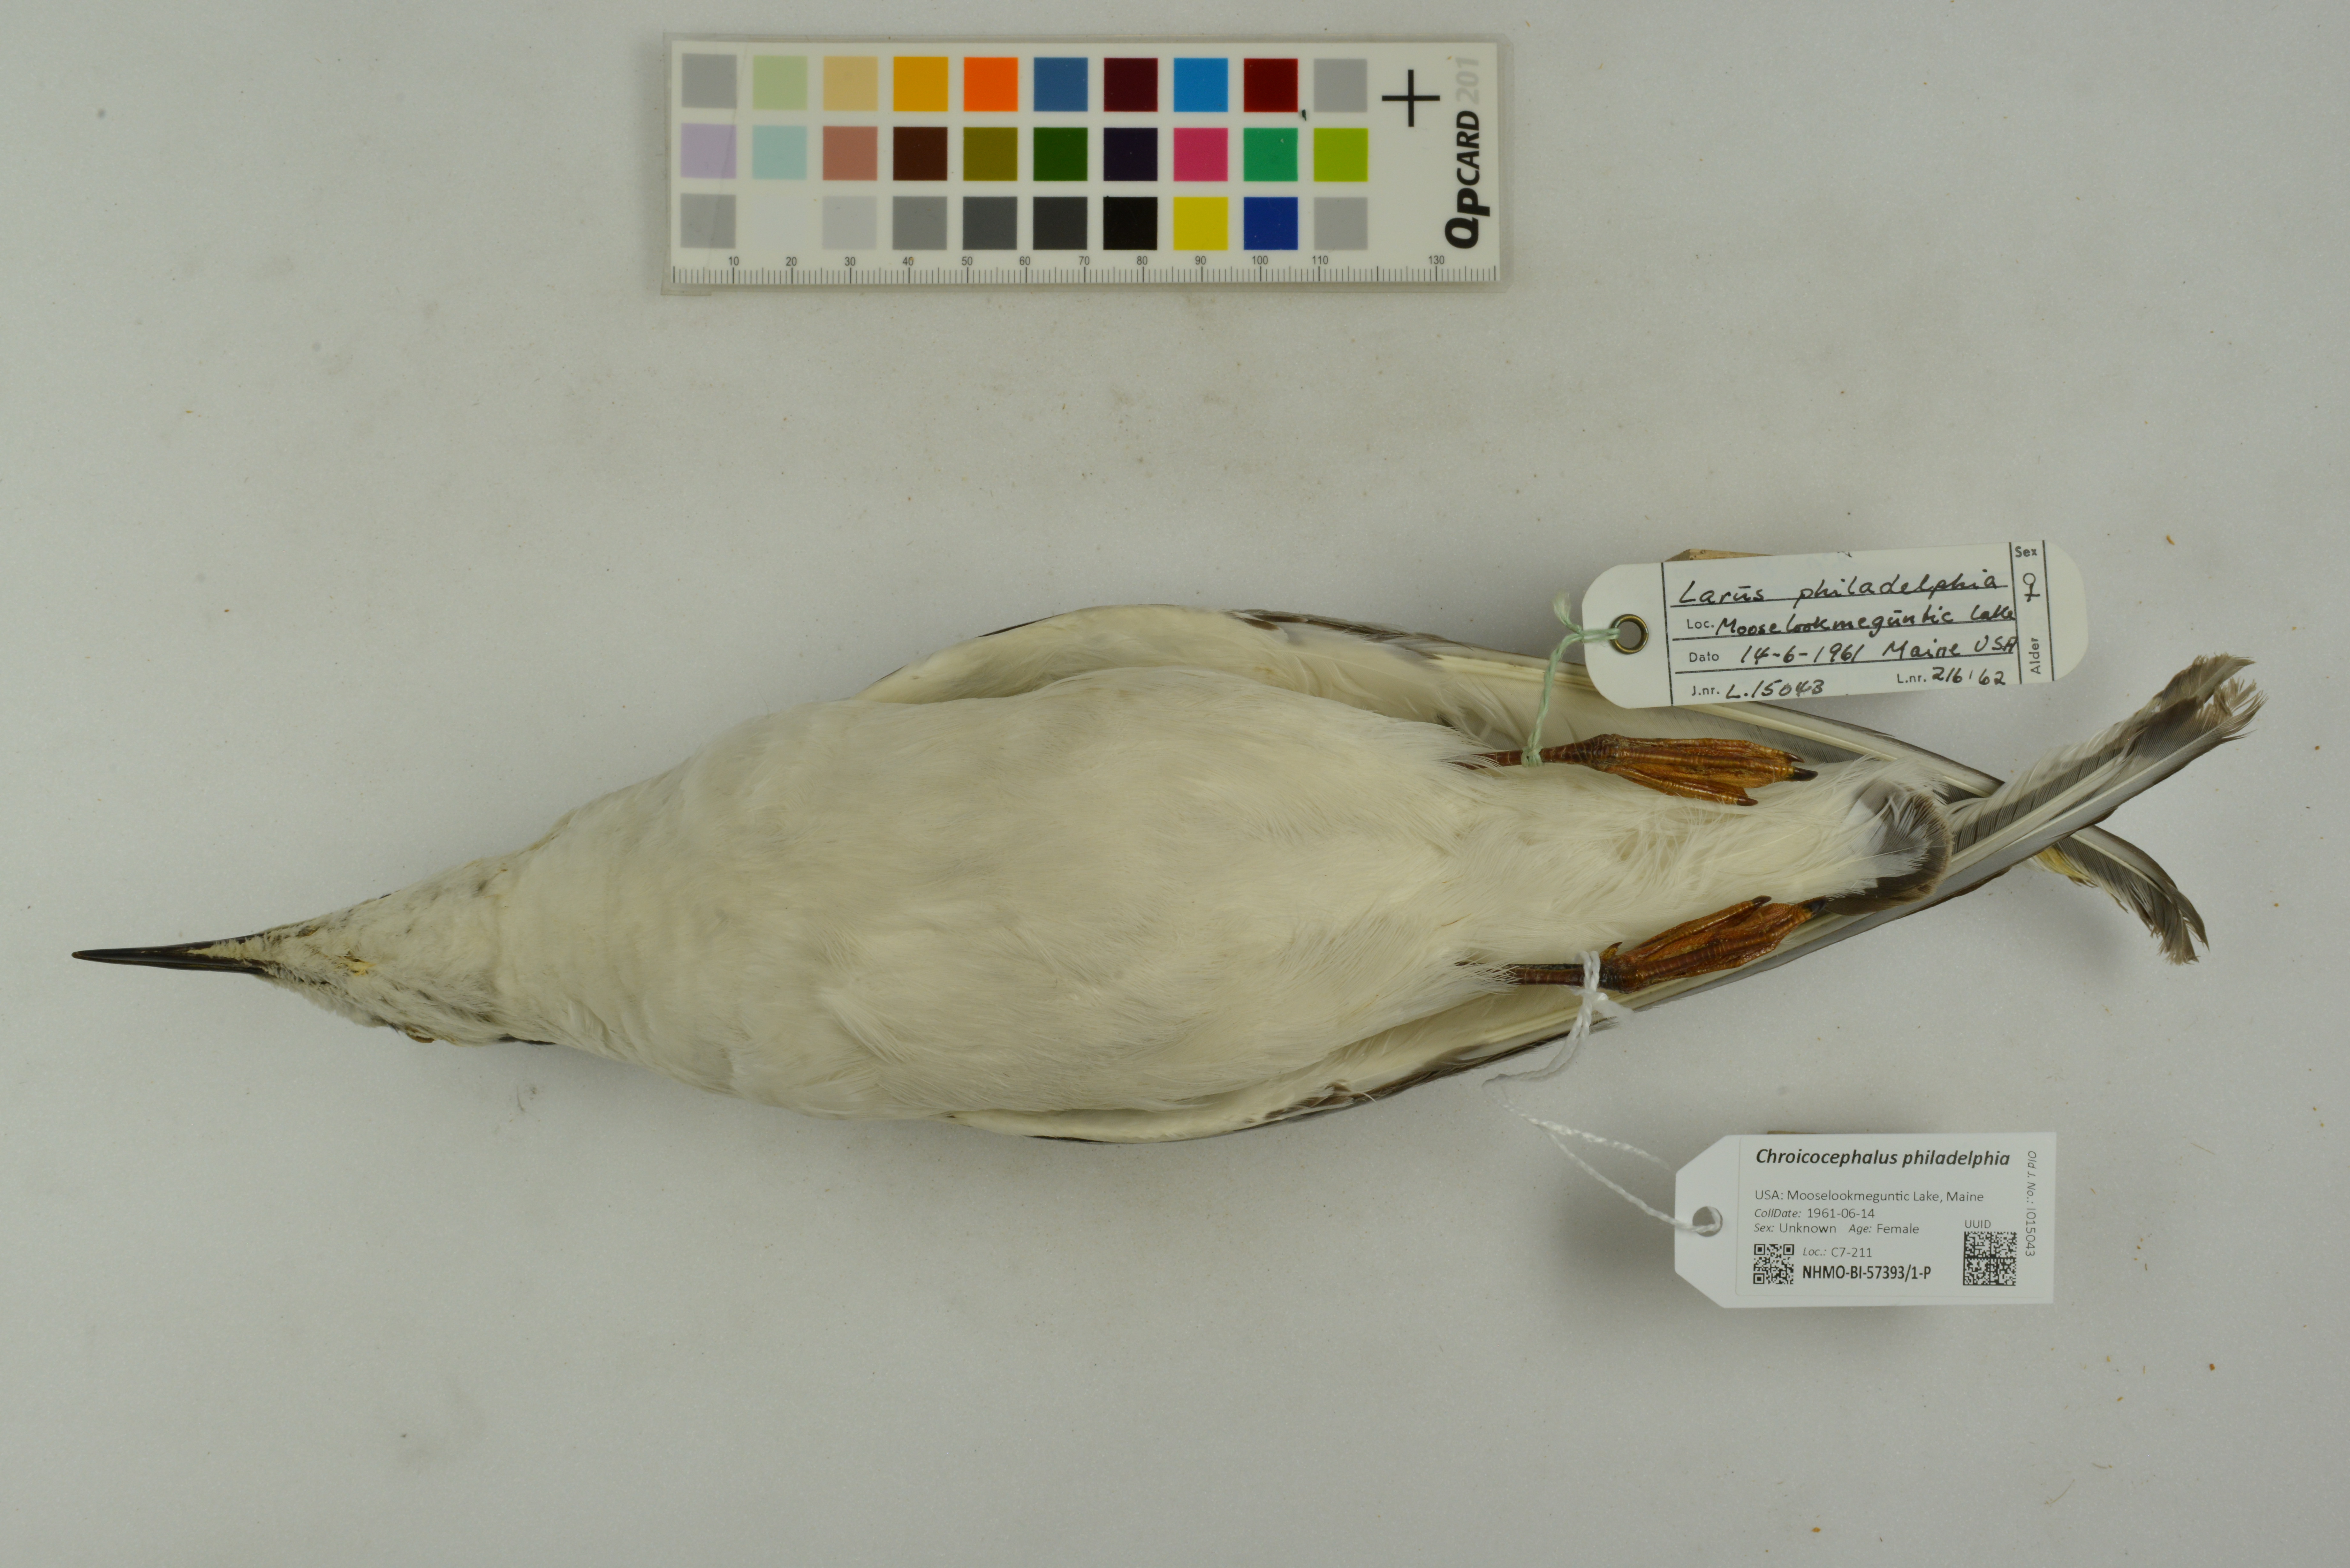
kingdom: Animalia
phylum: Chordata
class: Aves
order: Charadriiformes
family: Laridae
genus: Chroicocephalus
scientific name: Chroicocephalus philadelphia
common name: Bonaparte's gull
